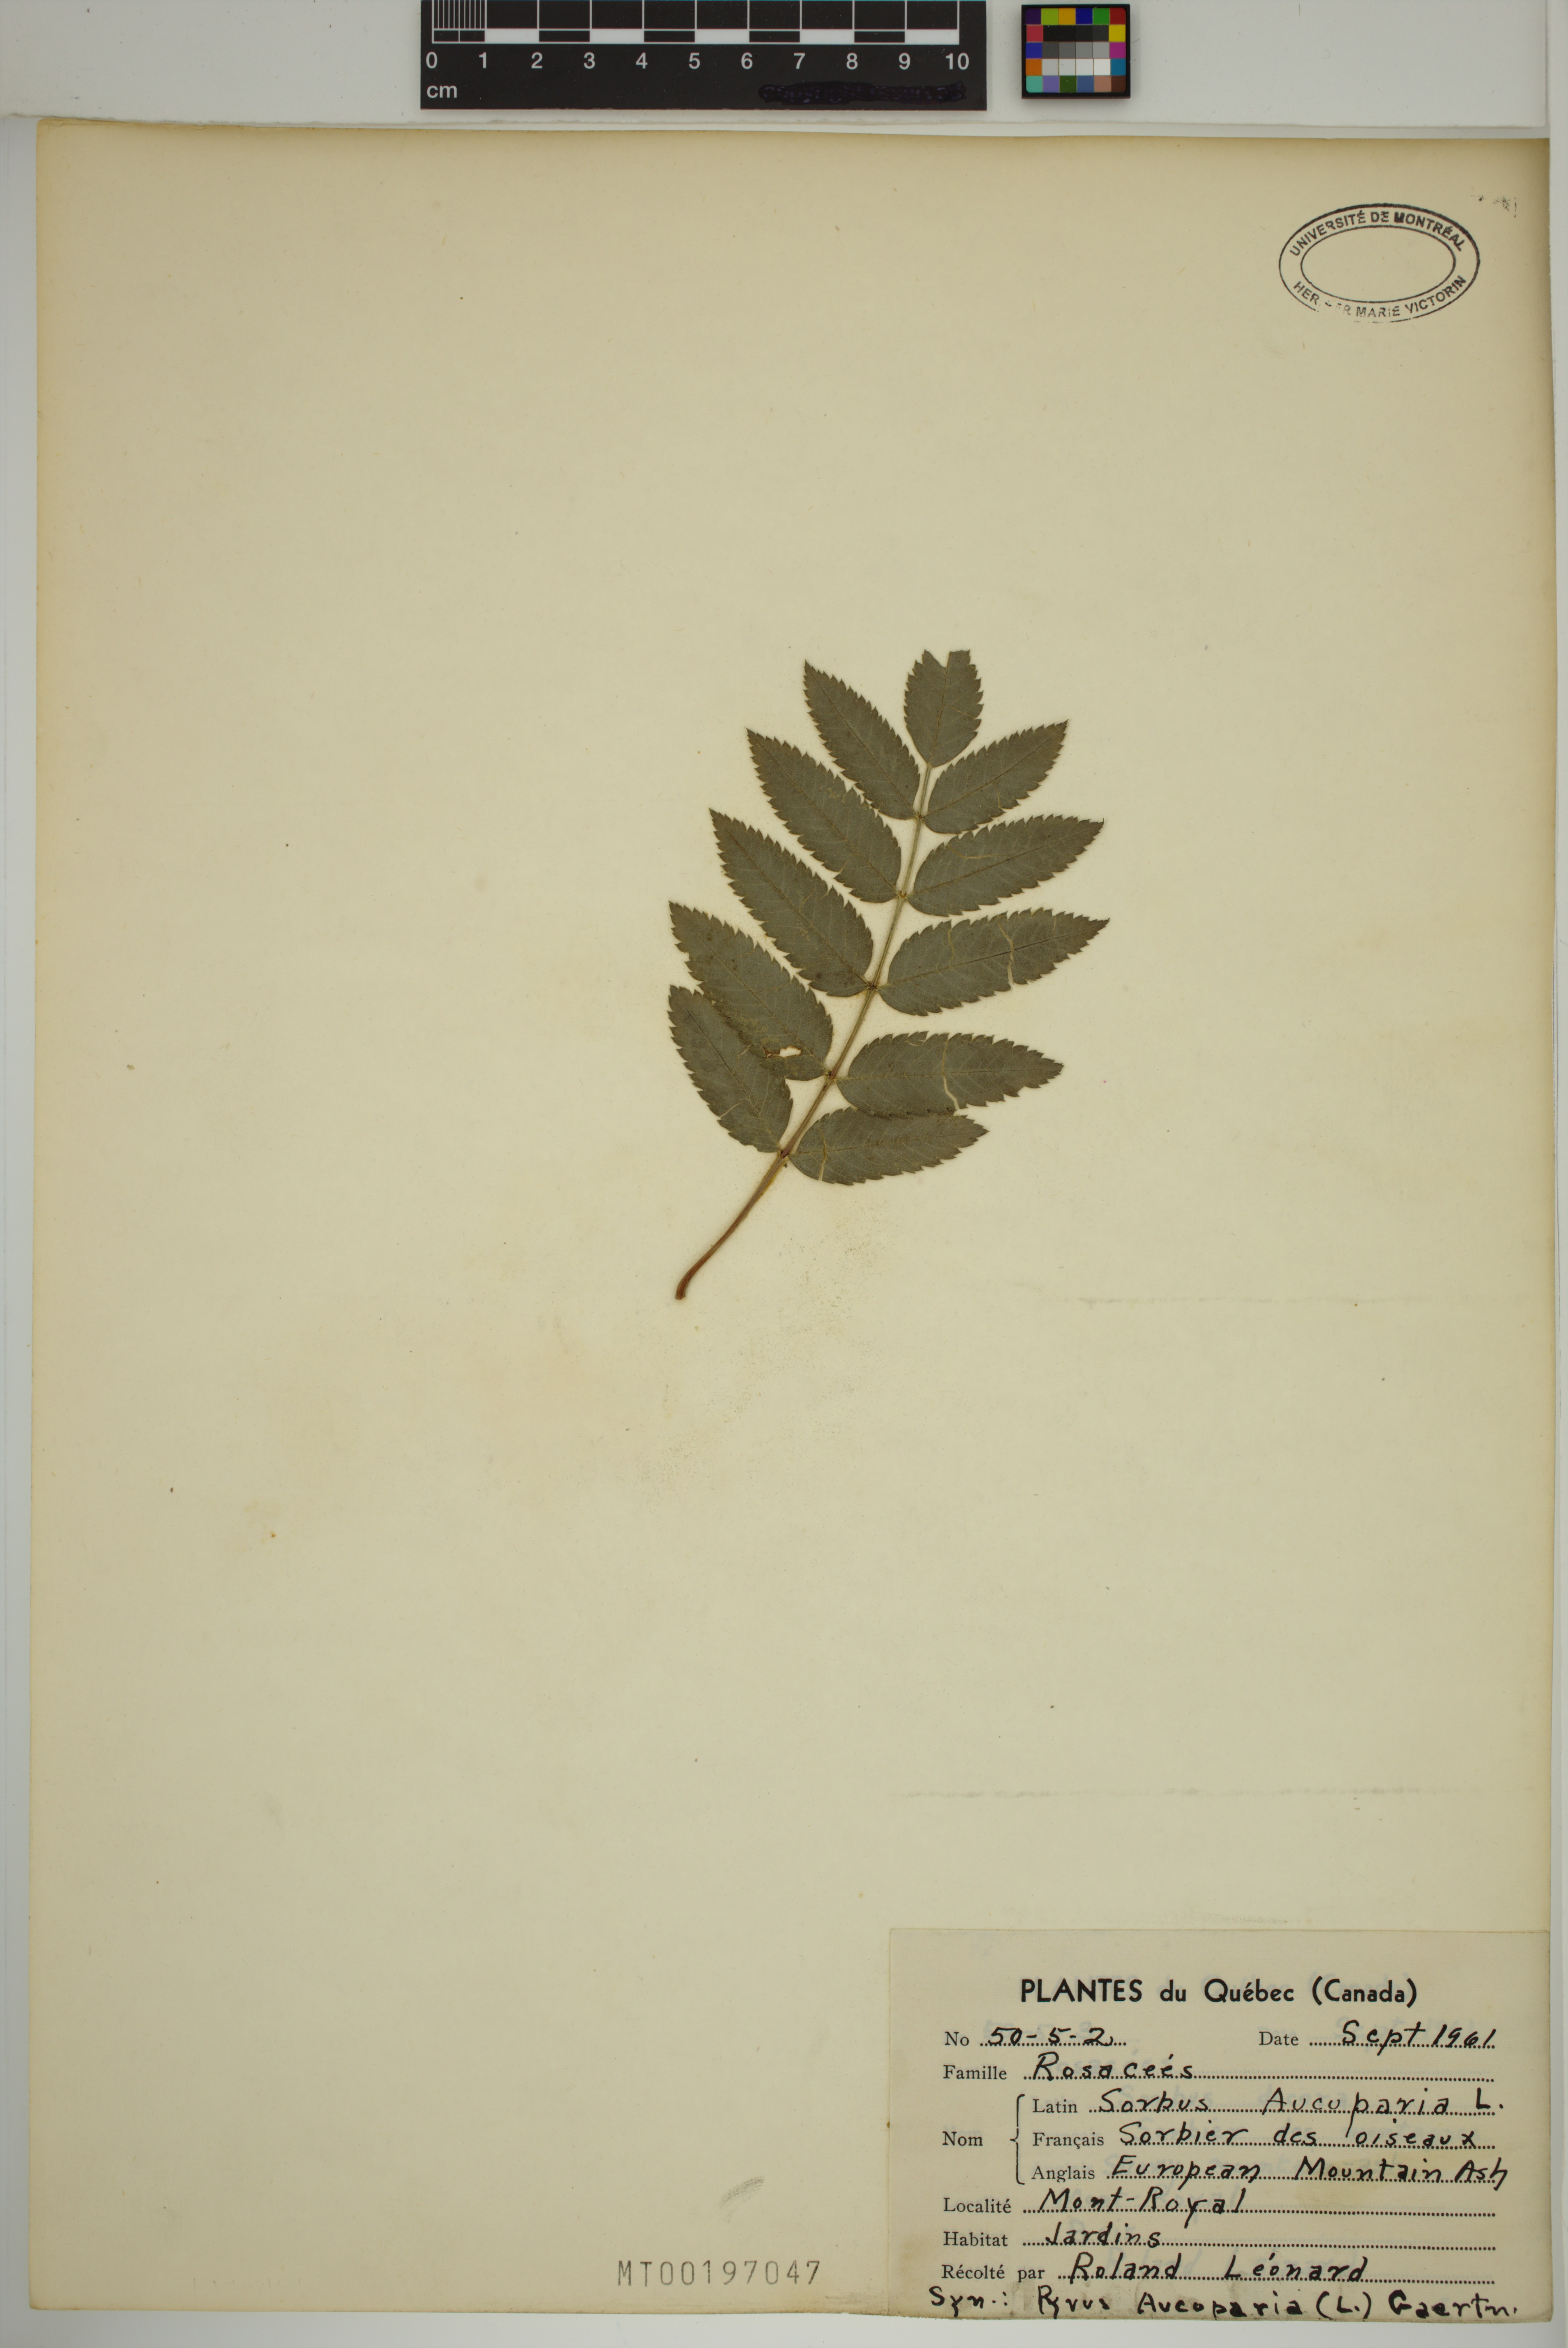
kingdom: Plantae
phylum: Tracheophyta
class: Magnoliopsida
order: Rosales
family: Rosaceae
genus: Sorbus
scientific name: Sorbus aucuparia
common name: Rowan
